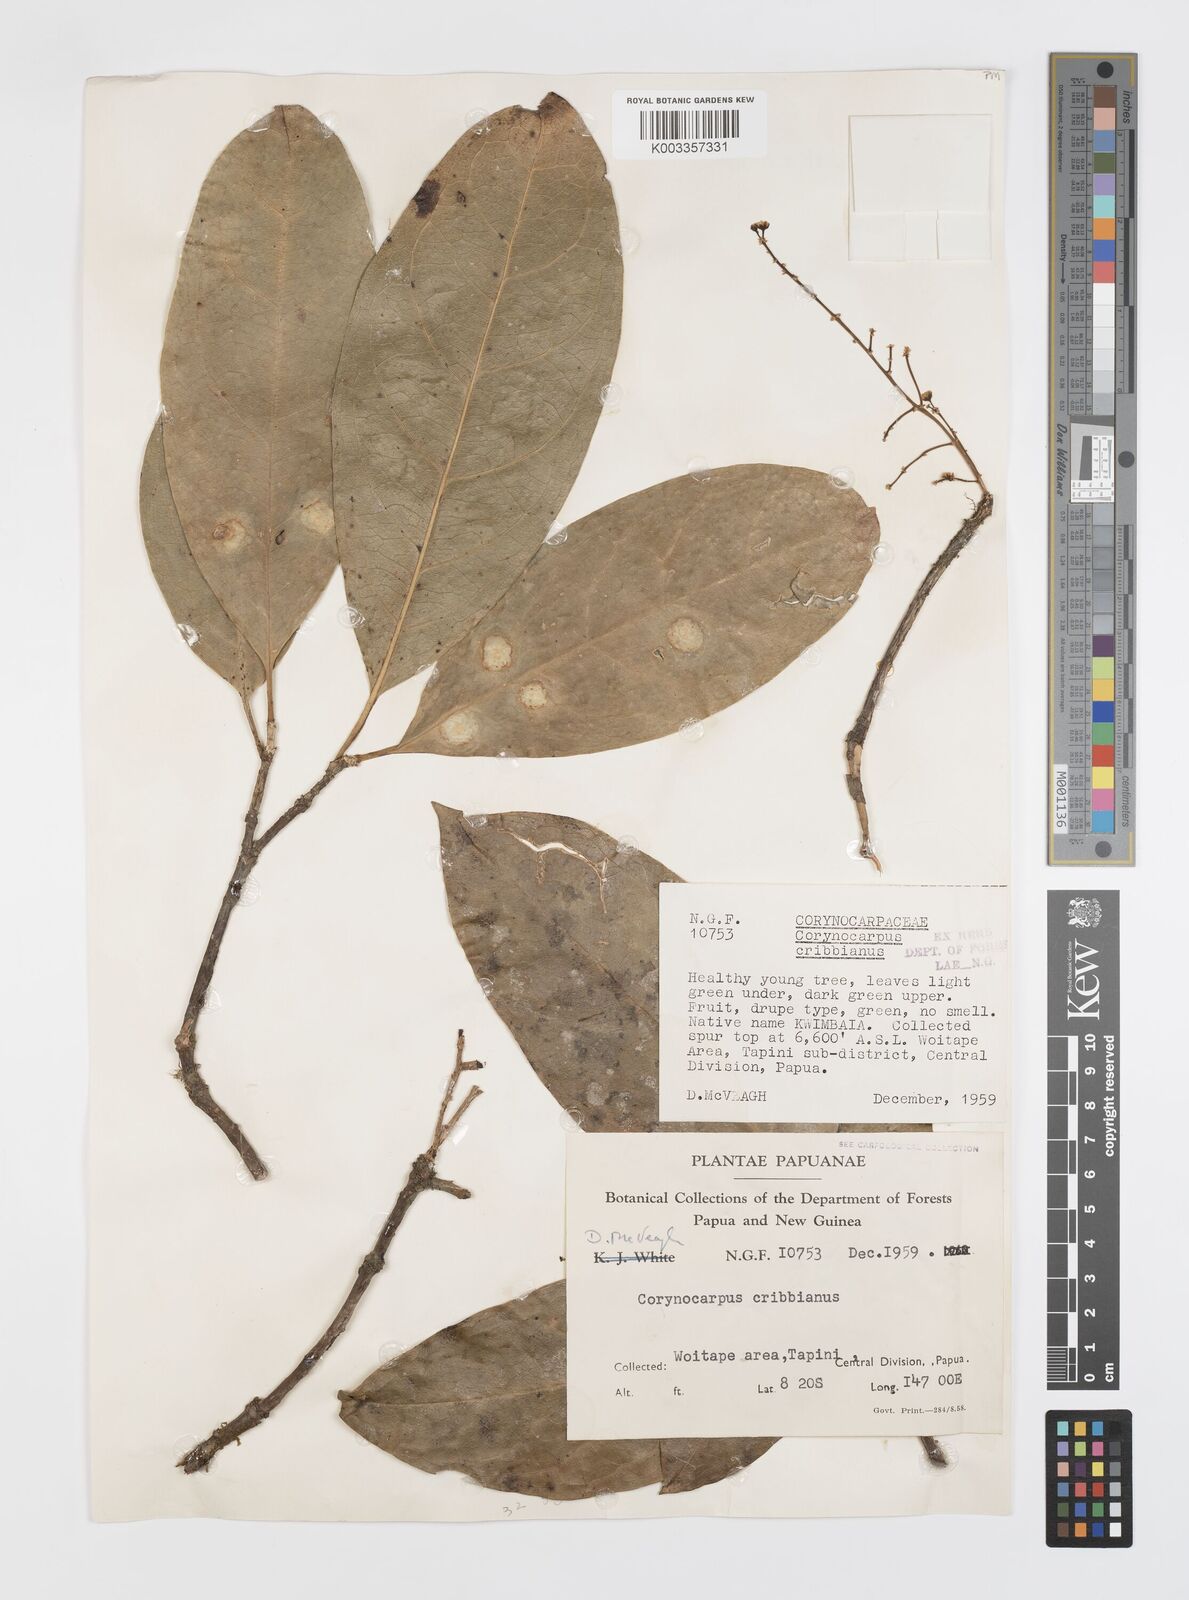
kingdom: Plantae
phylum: Tracheophyta
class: Magnoliopsida
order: Cucurbitales
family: Corynocarpaceae
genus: Corynocarpus
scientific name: Corynocarpus cribbianus
